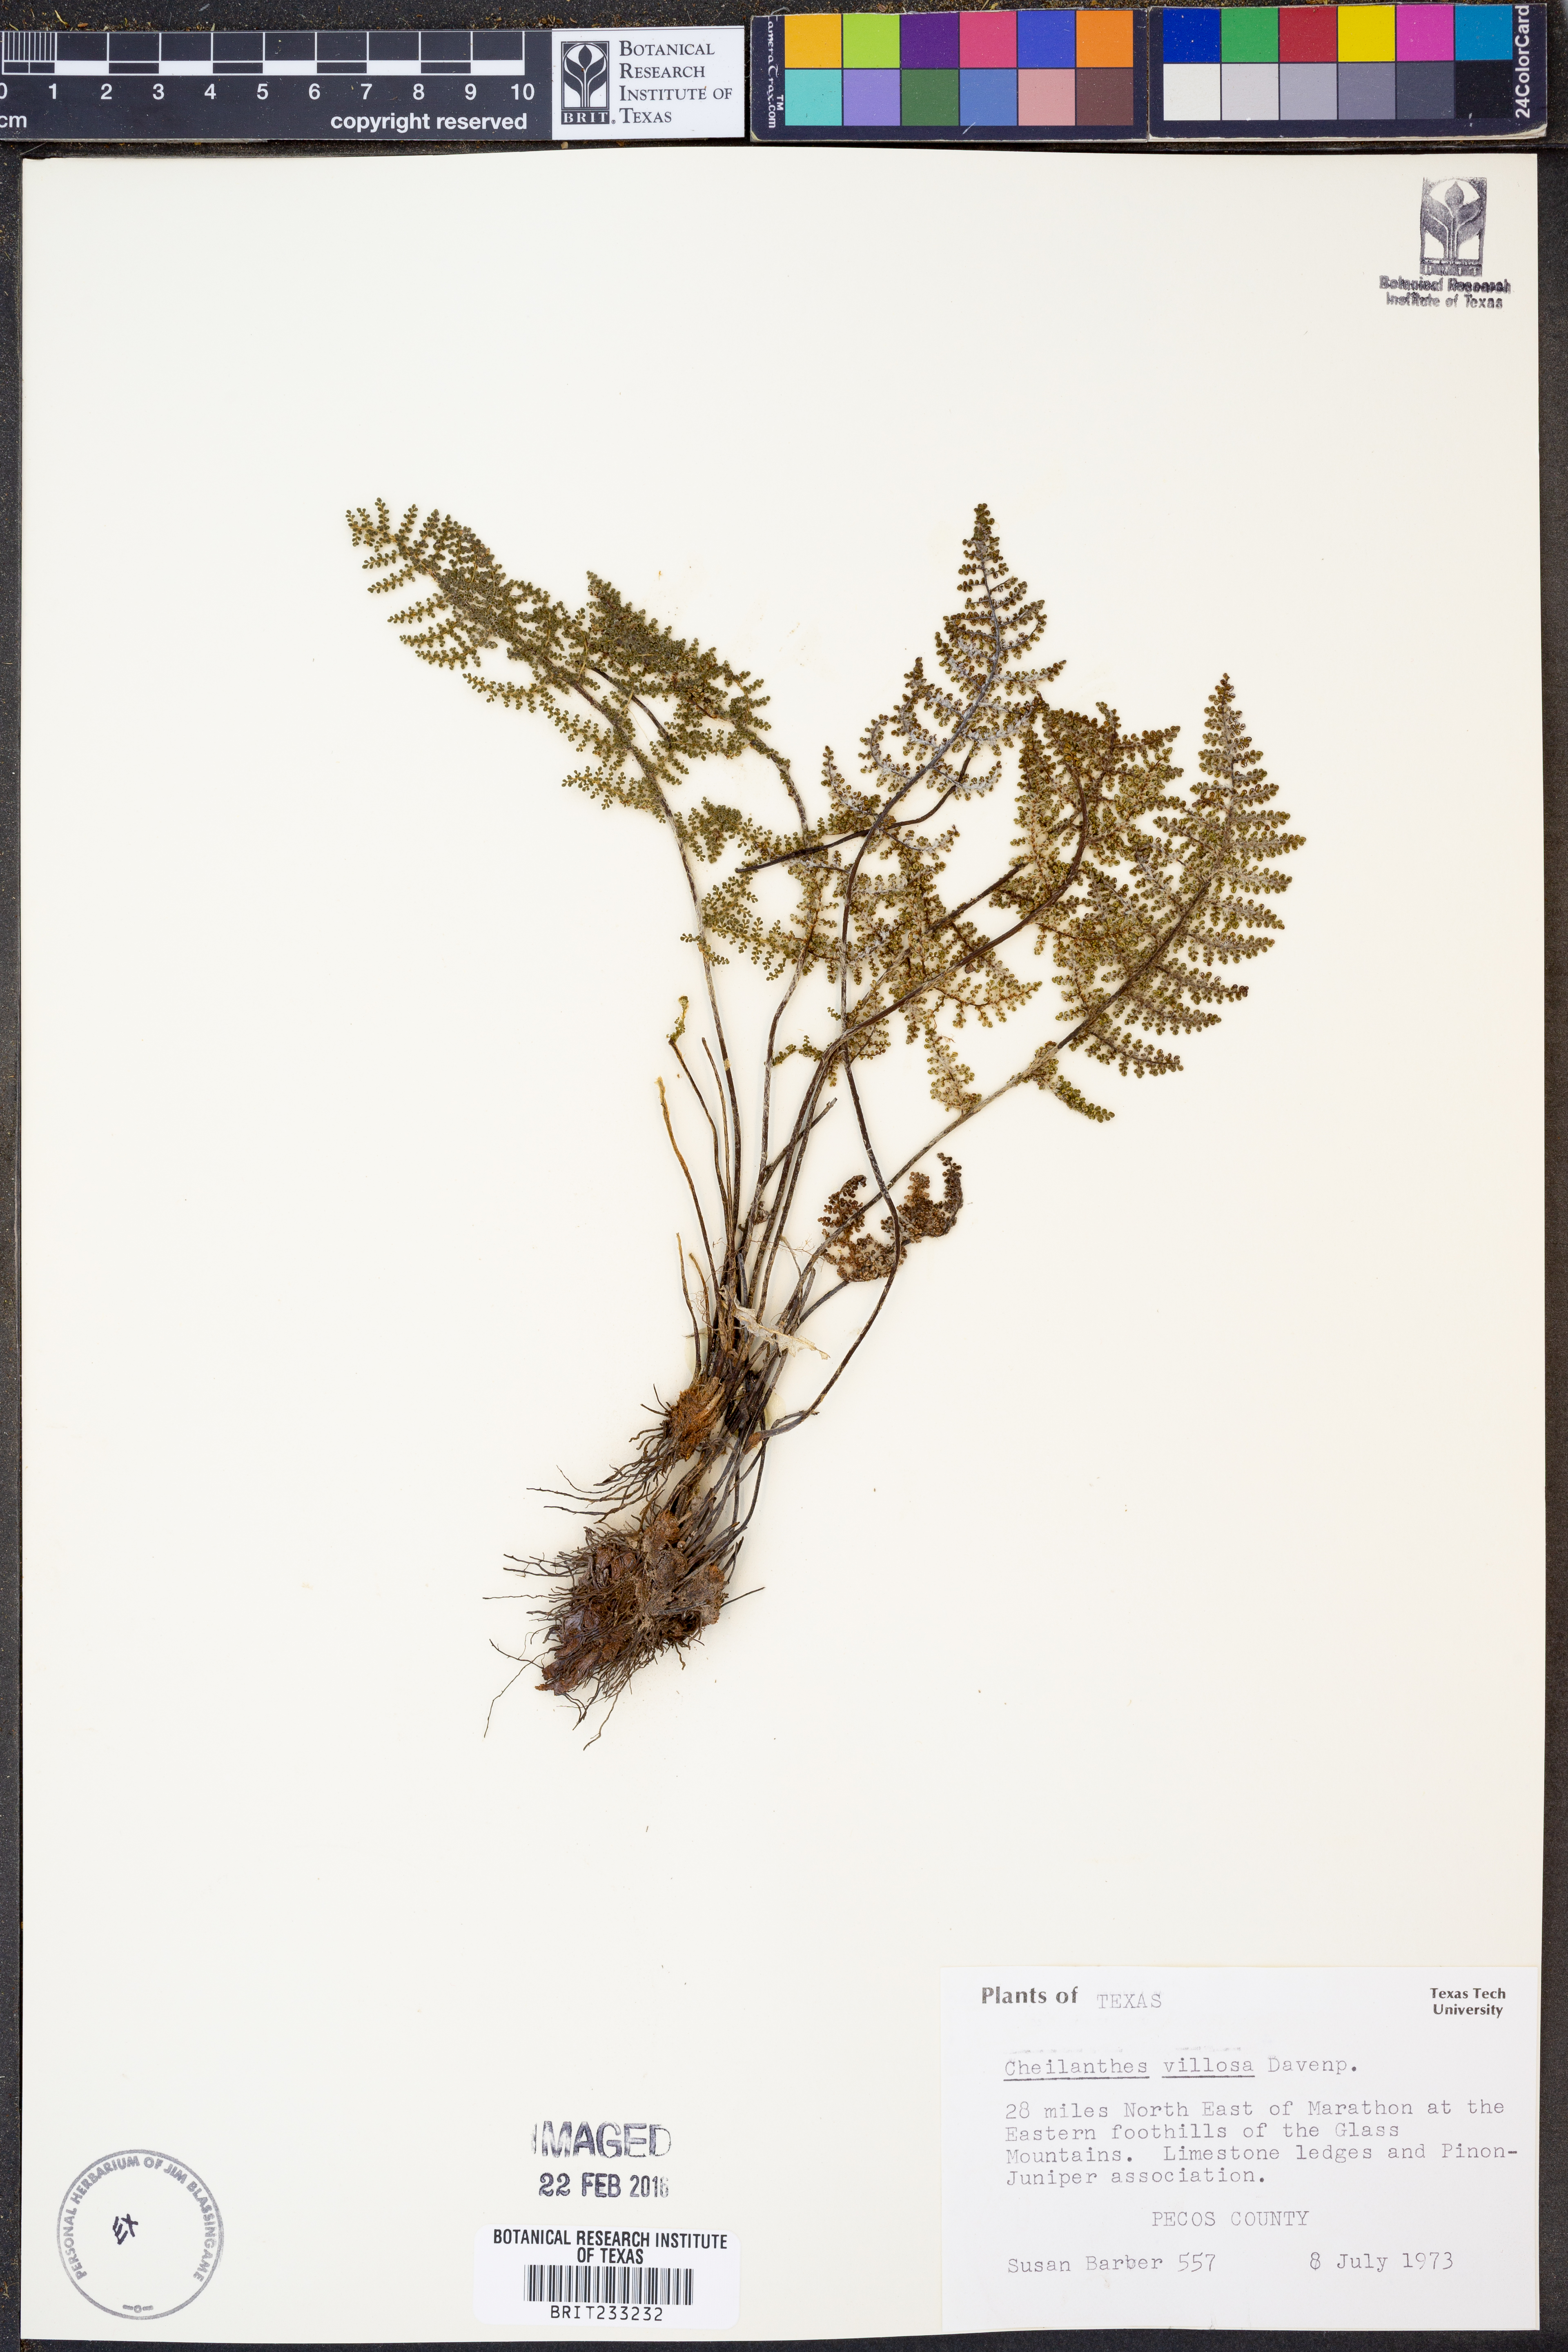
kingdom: Plantae
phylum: Tracheophyta
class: Polypodiopsida
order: Polypodiales
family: Pteridaceae
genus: Myriopteris
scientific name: Myriopteris windhamii
